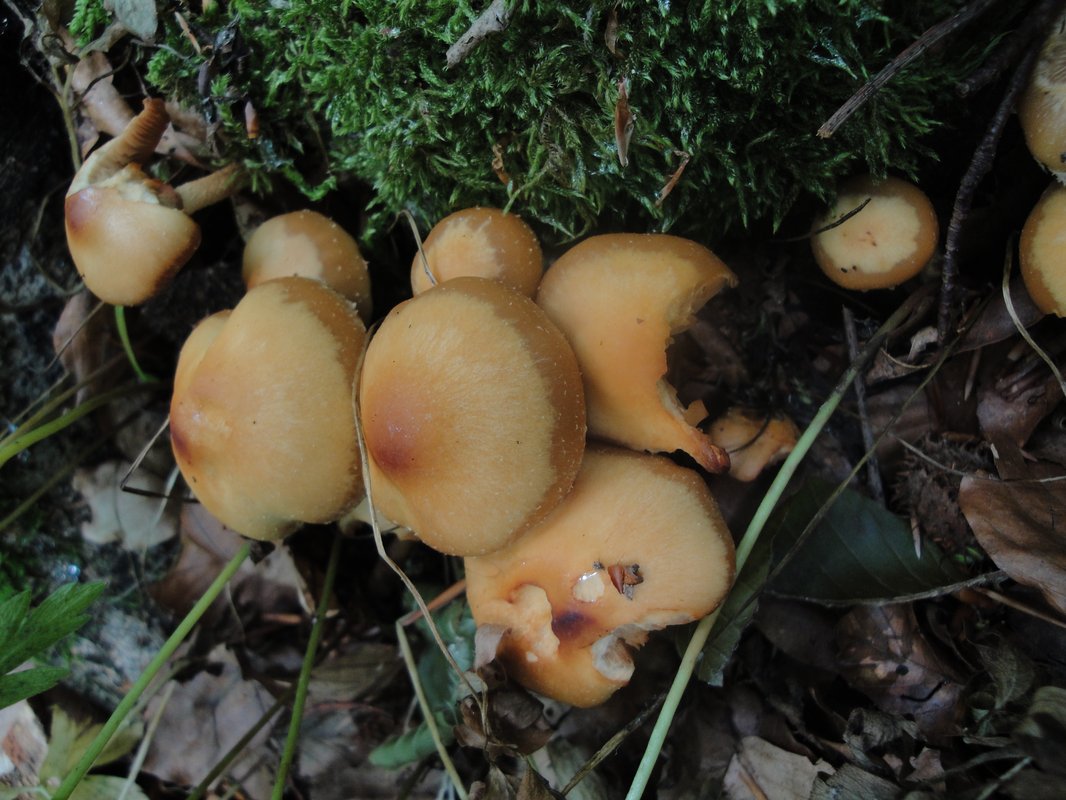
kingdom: Fungi
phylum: Basidiomycota
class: Agaricomycetes
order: Agaricales
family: Strophariaceae
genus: Kuehneromyces
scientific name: Kuehneromyces mutabilis
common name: foranderlig skælhat
